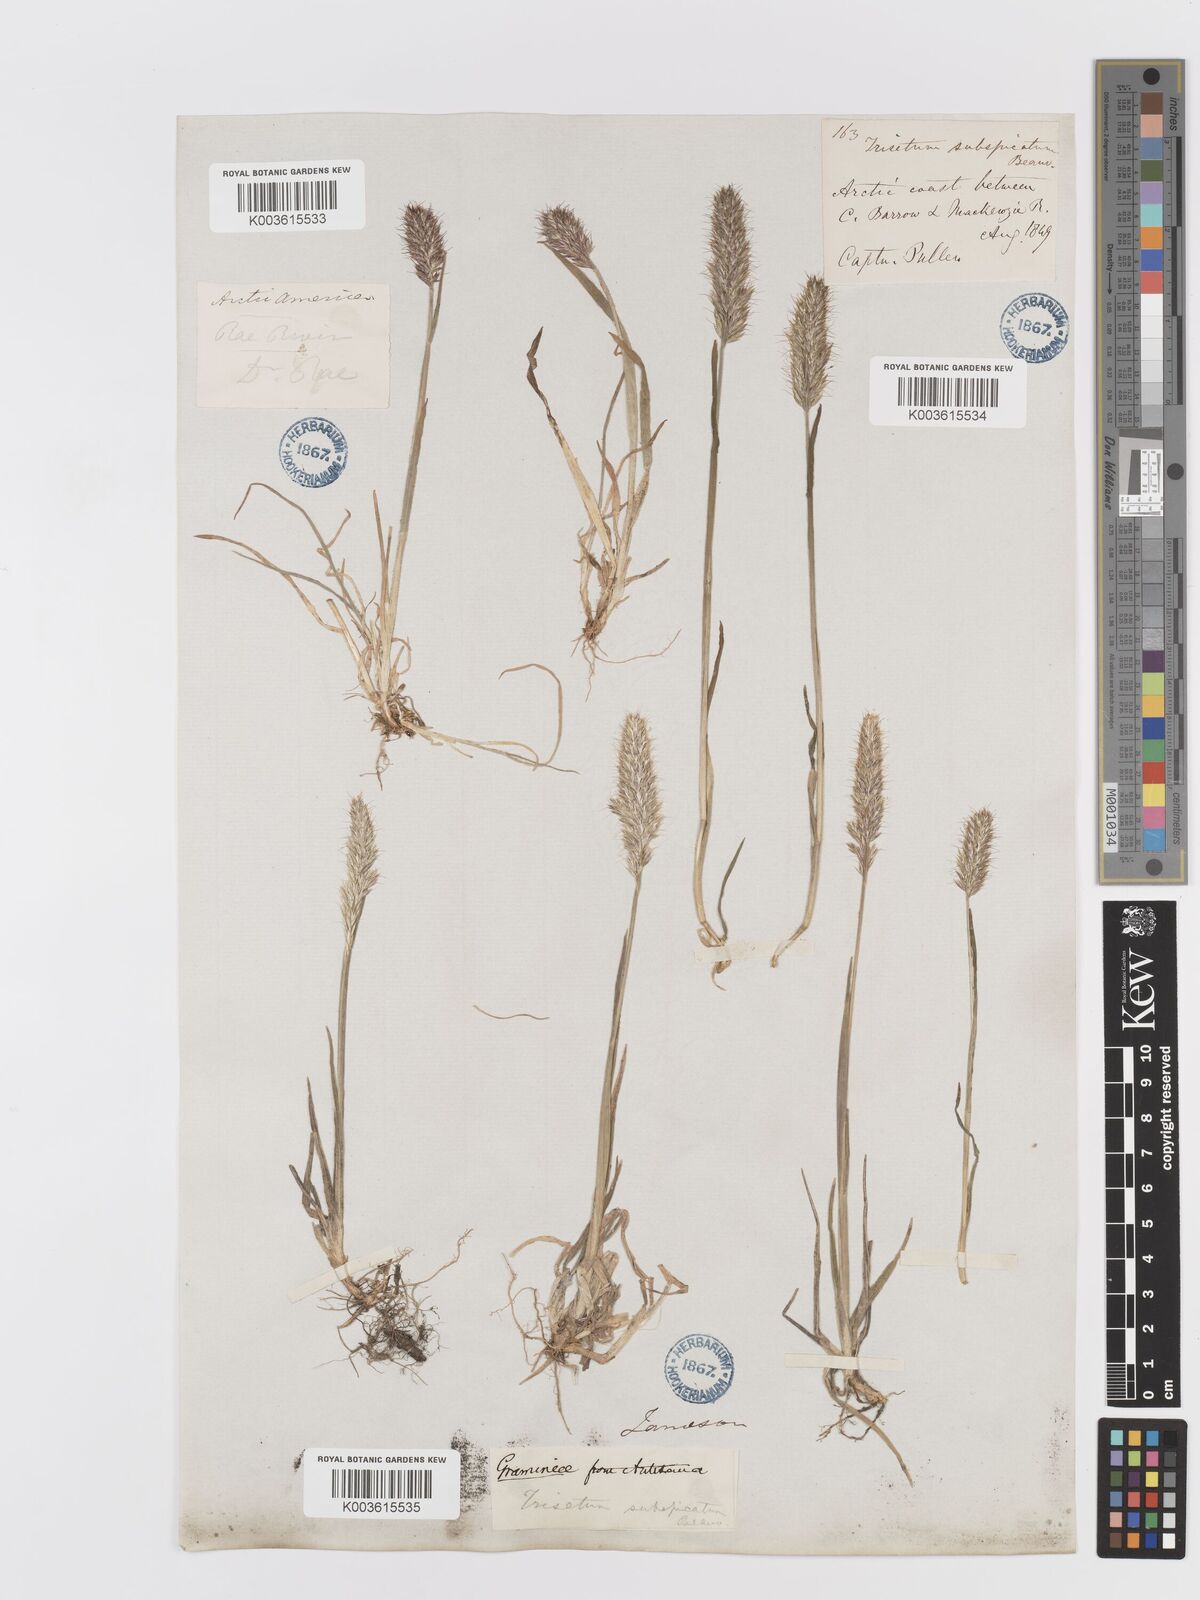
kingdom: Plantae
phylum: Tracheophyta
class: Liliopsida
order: Poales
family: Poaceae
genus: Koeleria
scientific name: Koeleria spicata
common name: Mountain trisetum
